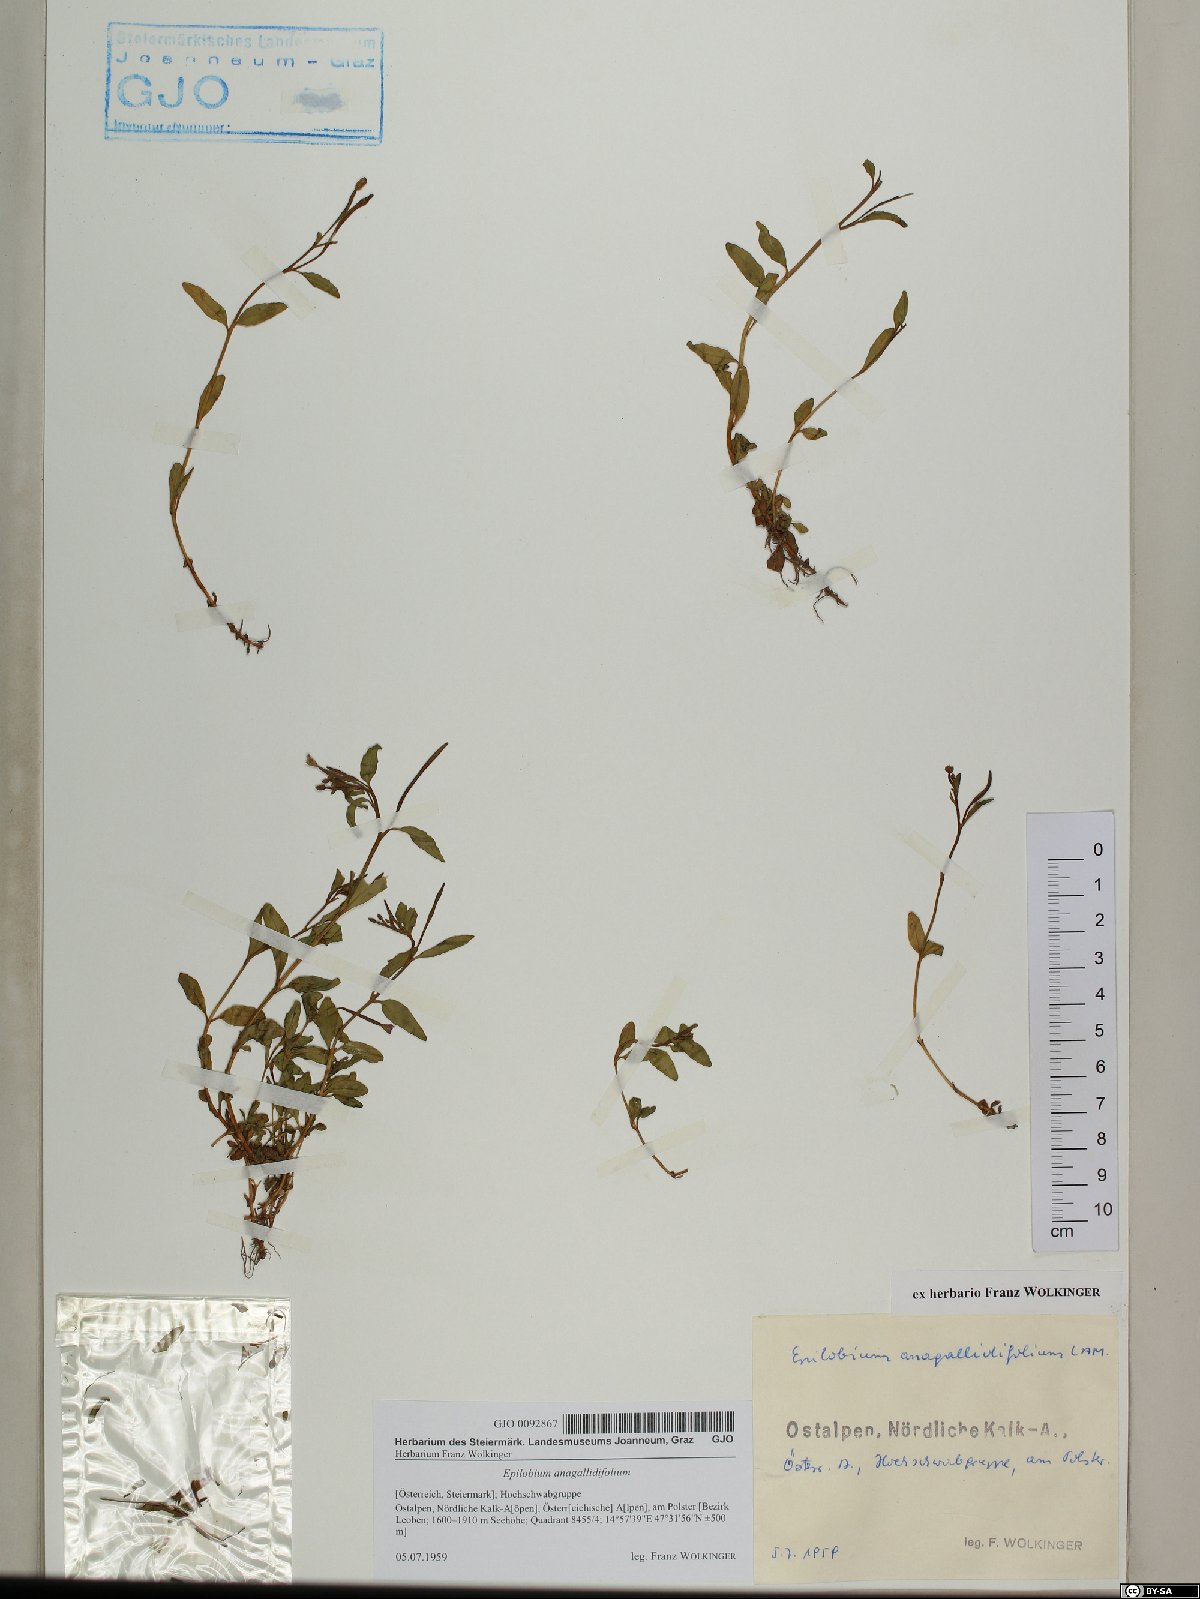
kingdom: Plantae
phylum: Tracheophyta
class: Magnoliopsida
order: Myrtales
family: Onagraceae
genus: Epilobium
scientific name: Epilobium anagallidifolium
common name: Alpine willowherb
